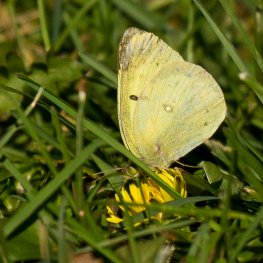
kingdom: Animalia
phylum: Arthropoda
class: Insecta
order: Lepidoptera
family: Pieridae
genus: Colias
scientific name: Colias philodice
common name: Clouded Sulphur
